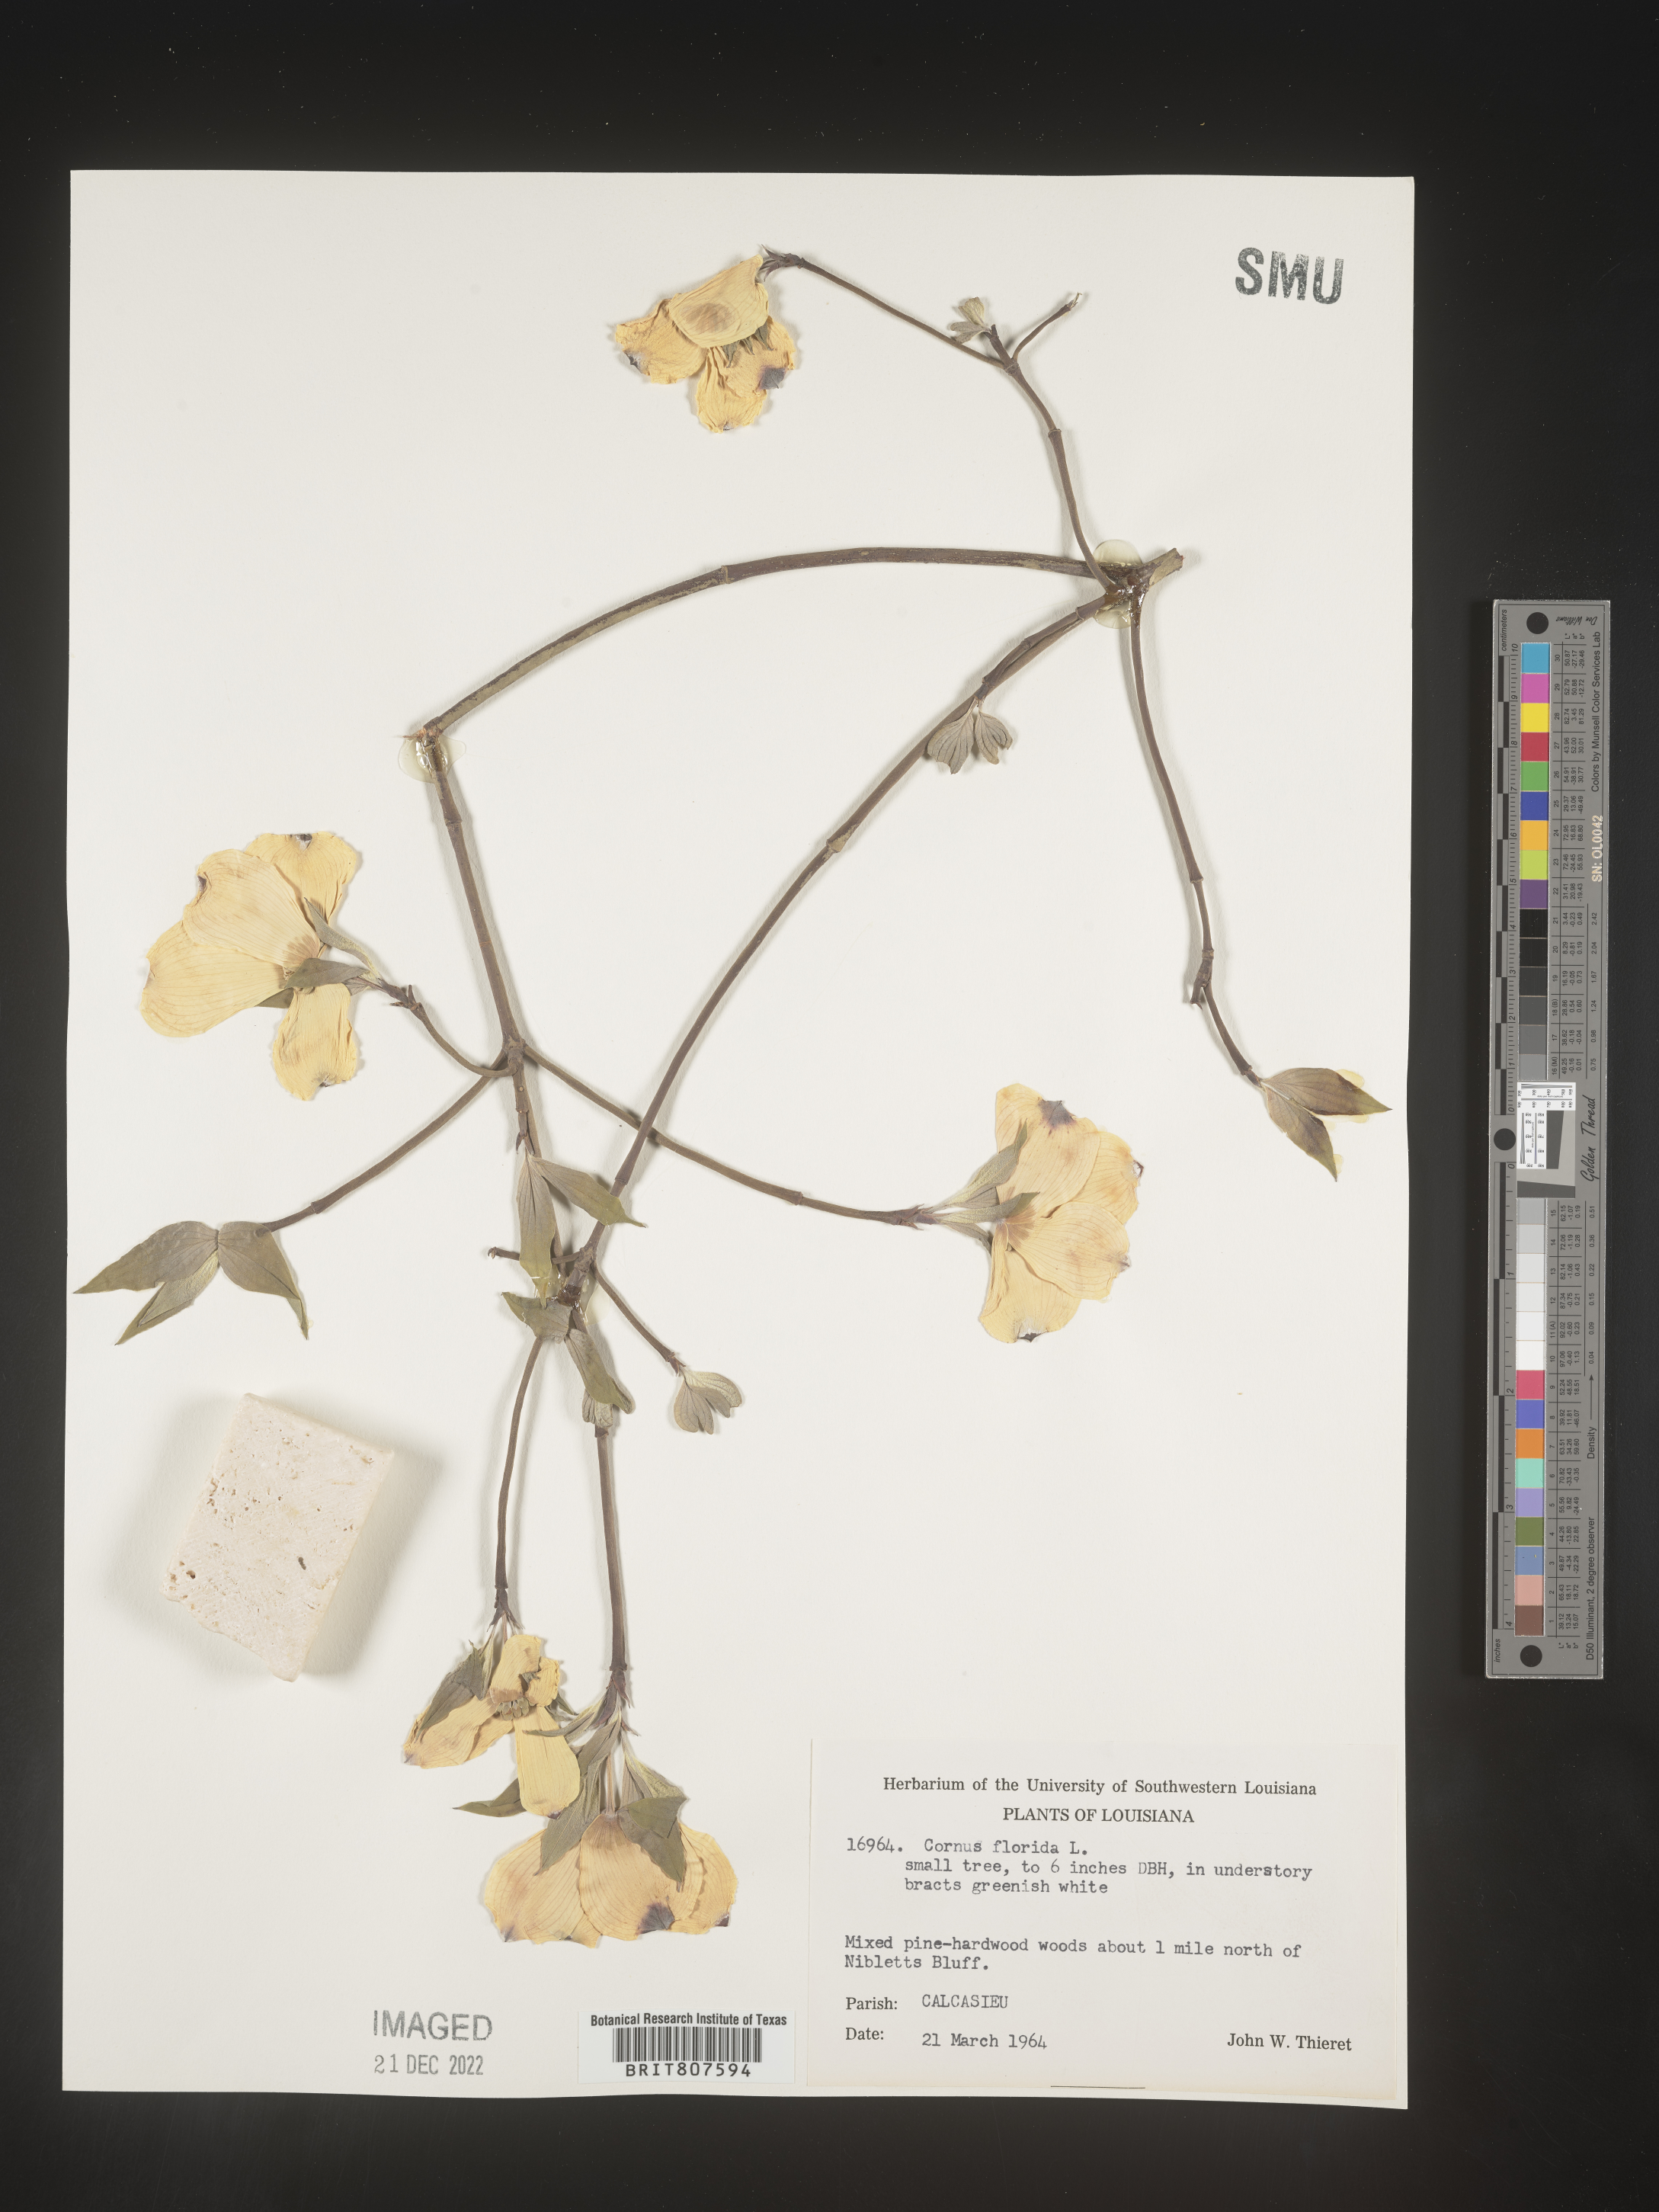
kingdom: Plantae
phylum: Tracheophyta
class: Magnoliopsida
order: Cornales
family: Cornaceae
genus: Cornus
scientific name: Cornus florida
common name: Flowering dogwood
